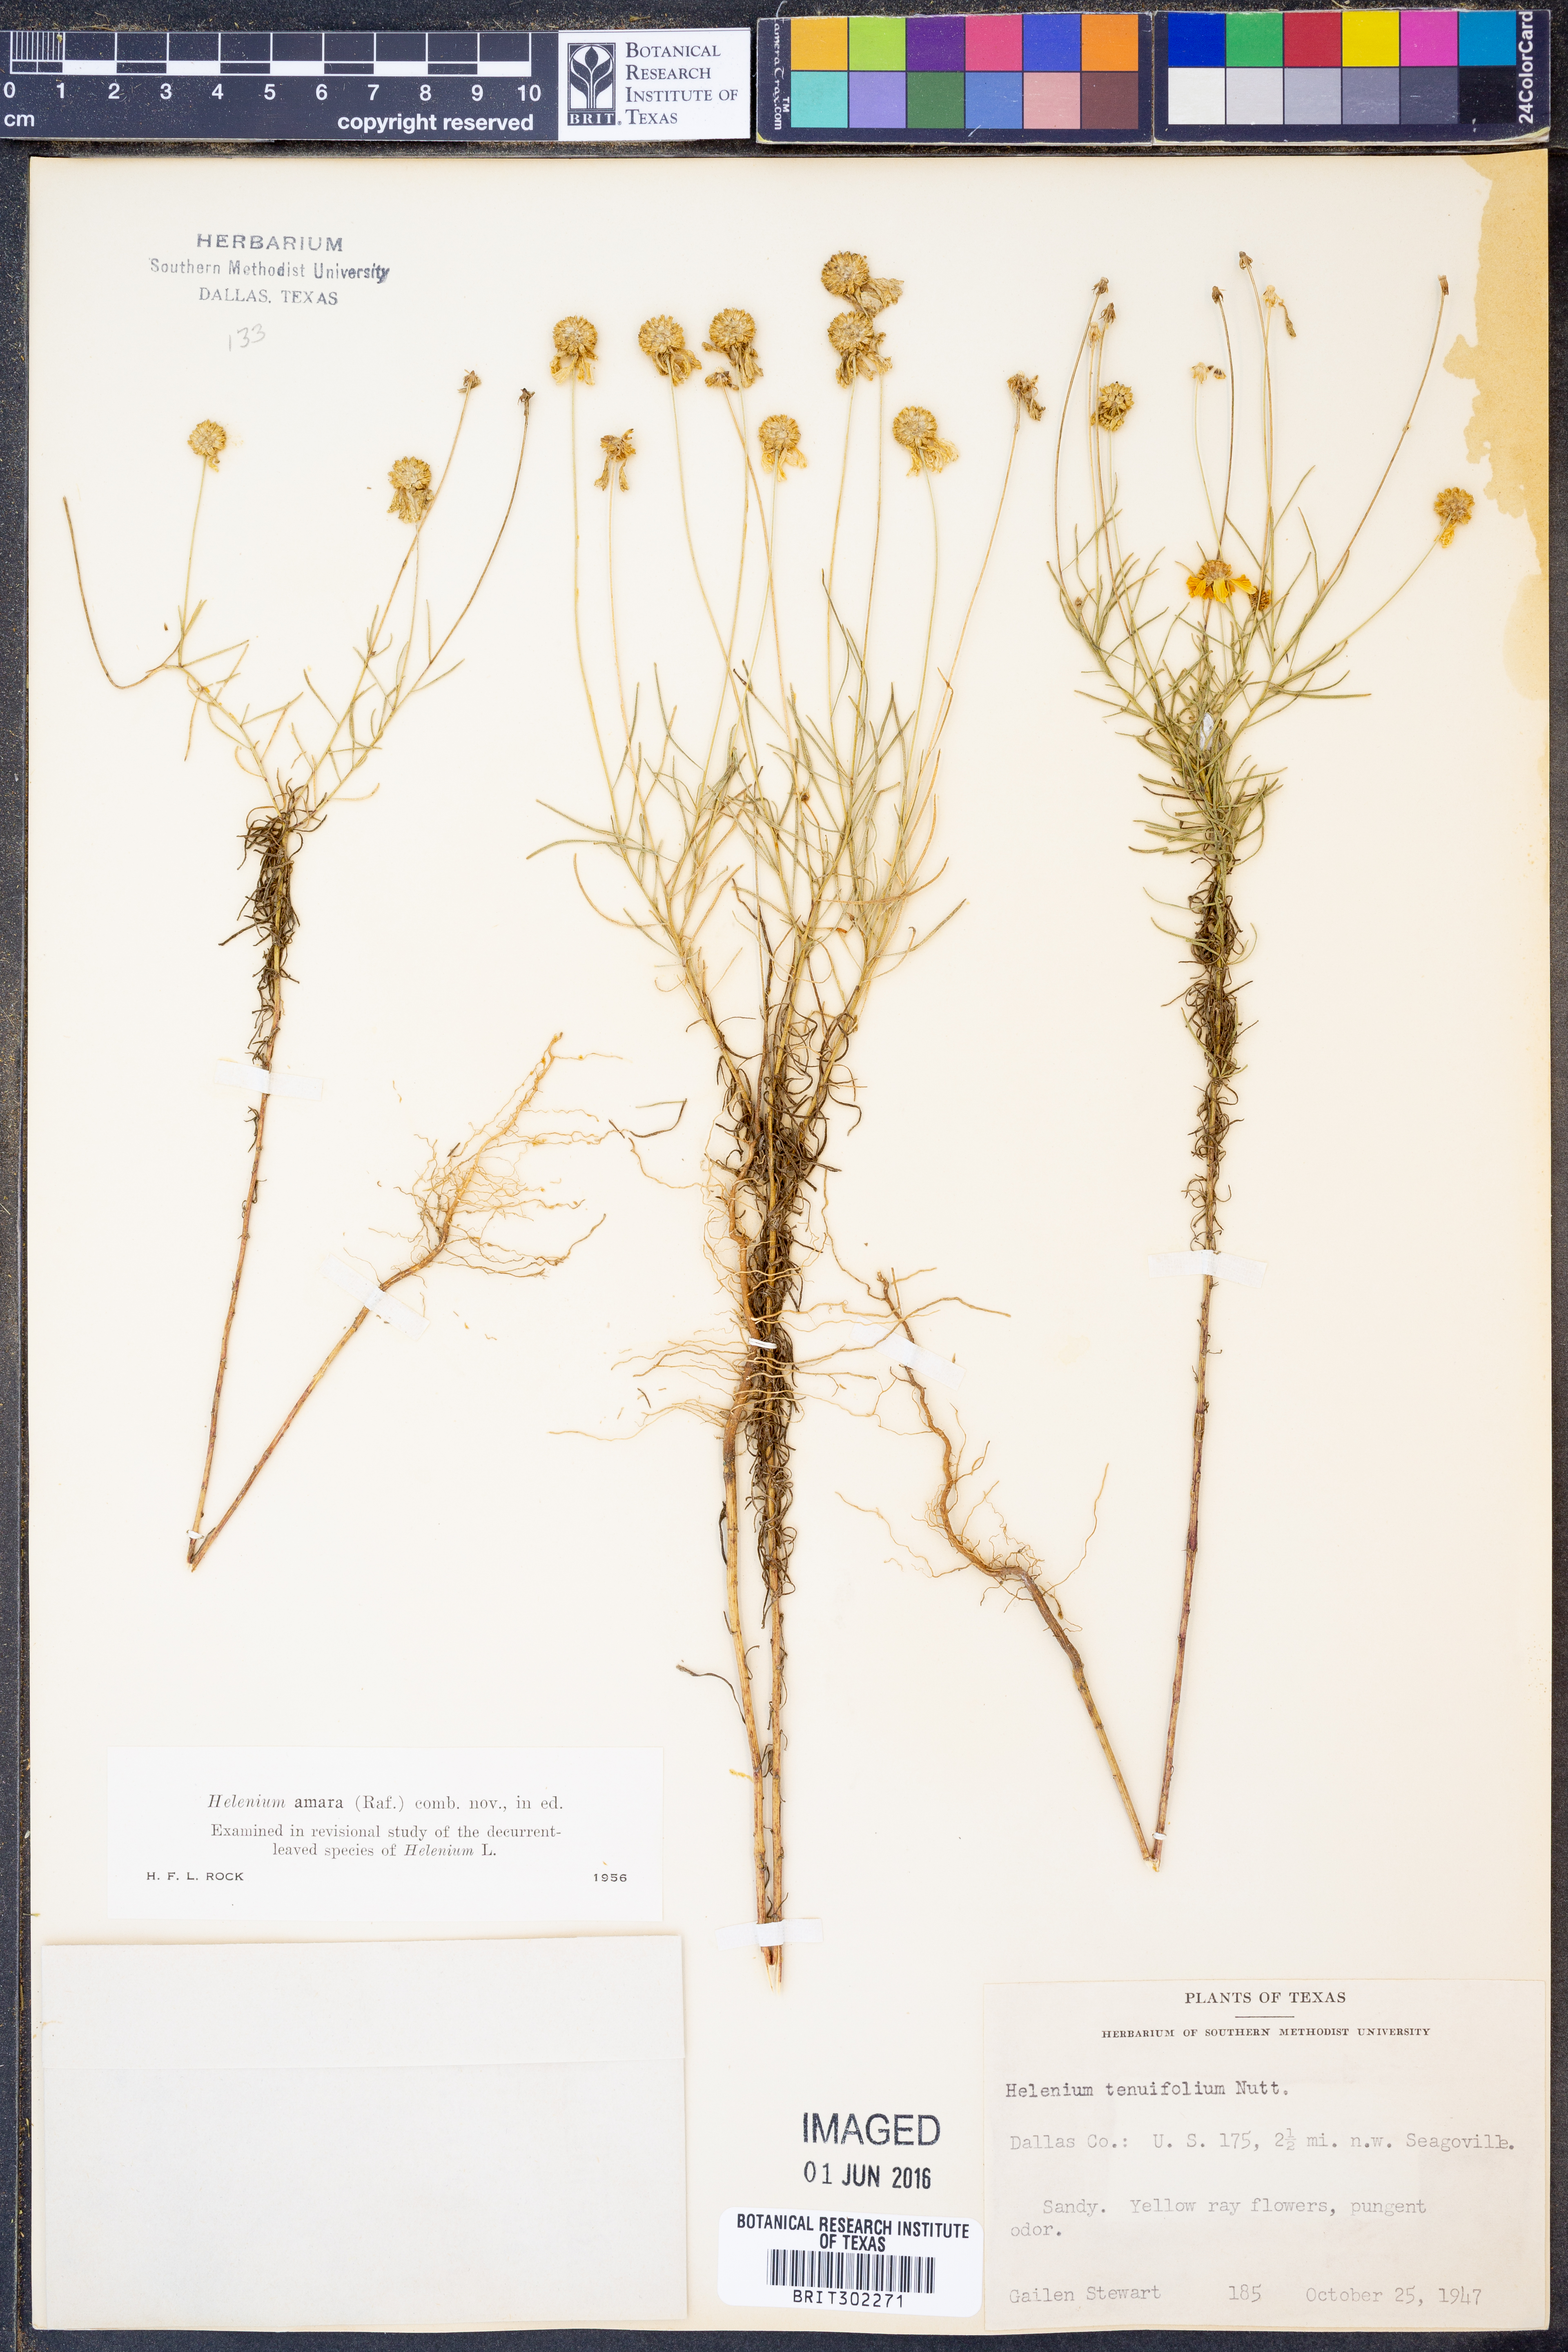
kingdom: Plantae
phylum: Tracheophyta
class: Magnoliopsida
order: Asterales
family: Asteraceae
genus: Helenium
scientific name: Helenium amarum
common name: Bitter sneezeweed
